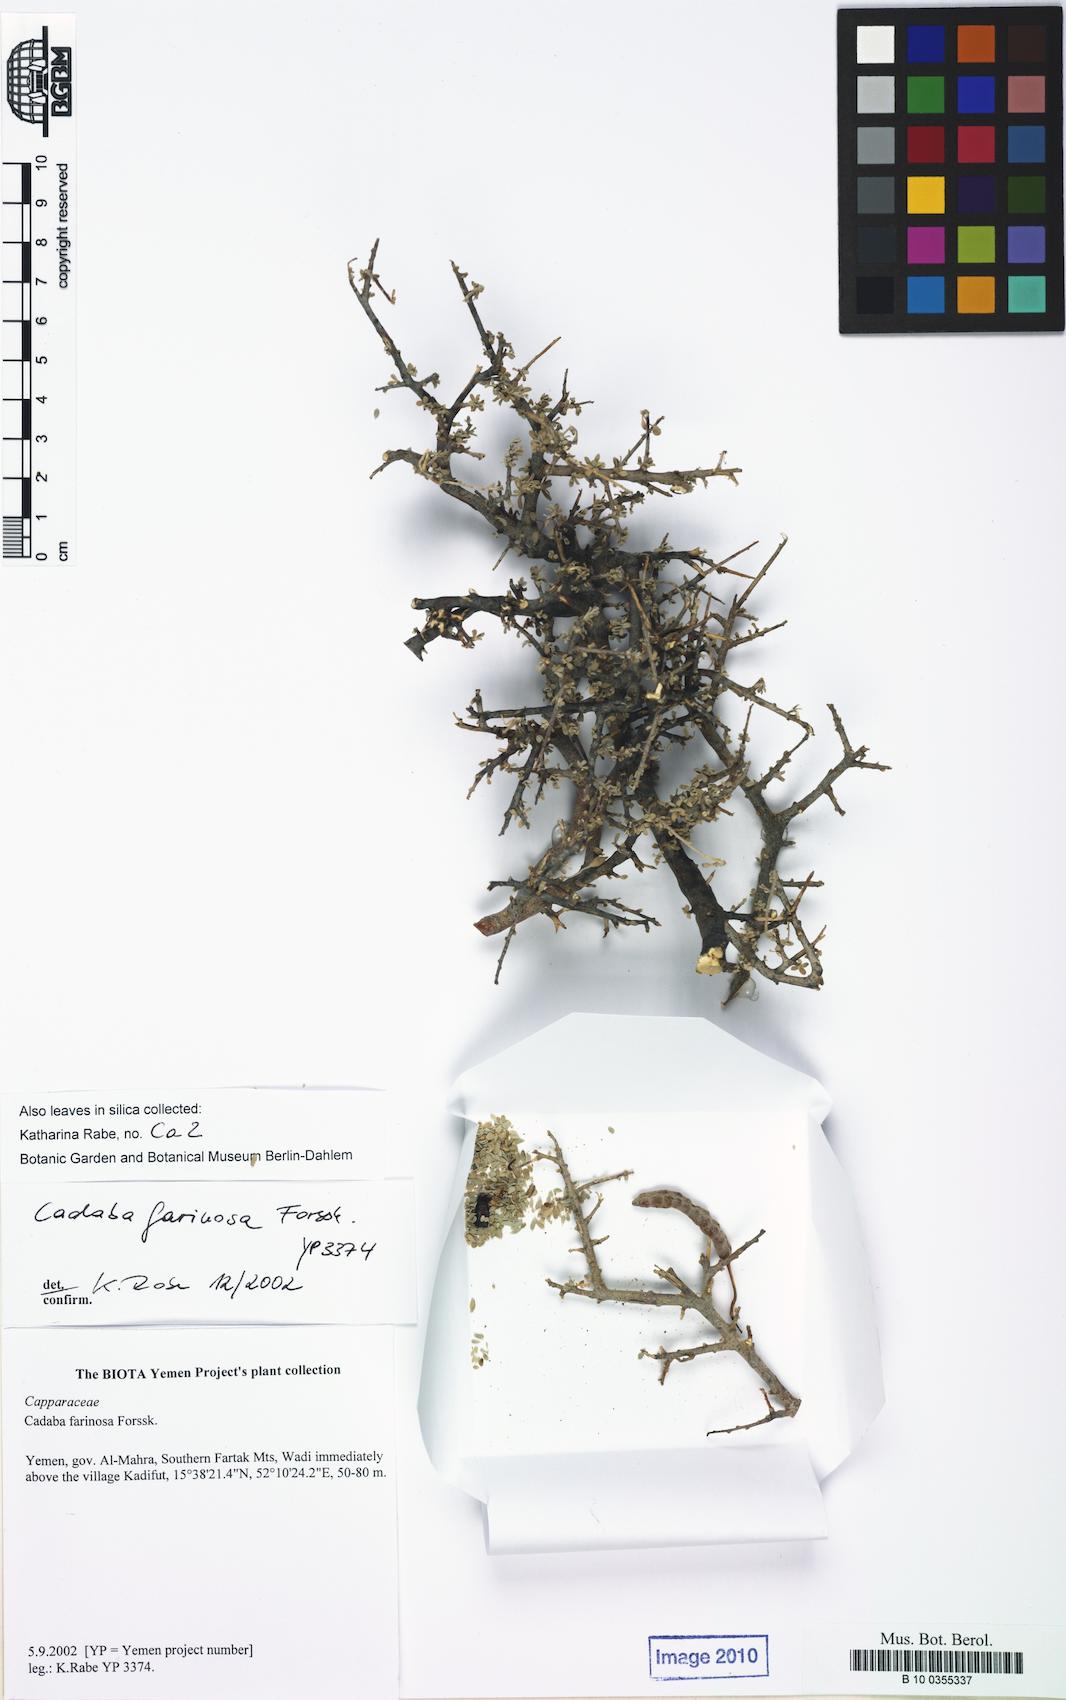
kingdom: Plantae
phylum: Tracheophyta
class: Magnoliopsida
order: Brassicales
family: Capparaceae
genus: Cadaba
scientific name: Cadaba farinosa
